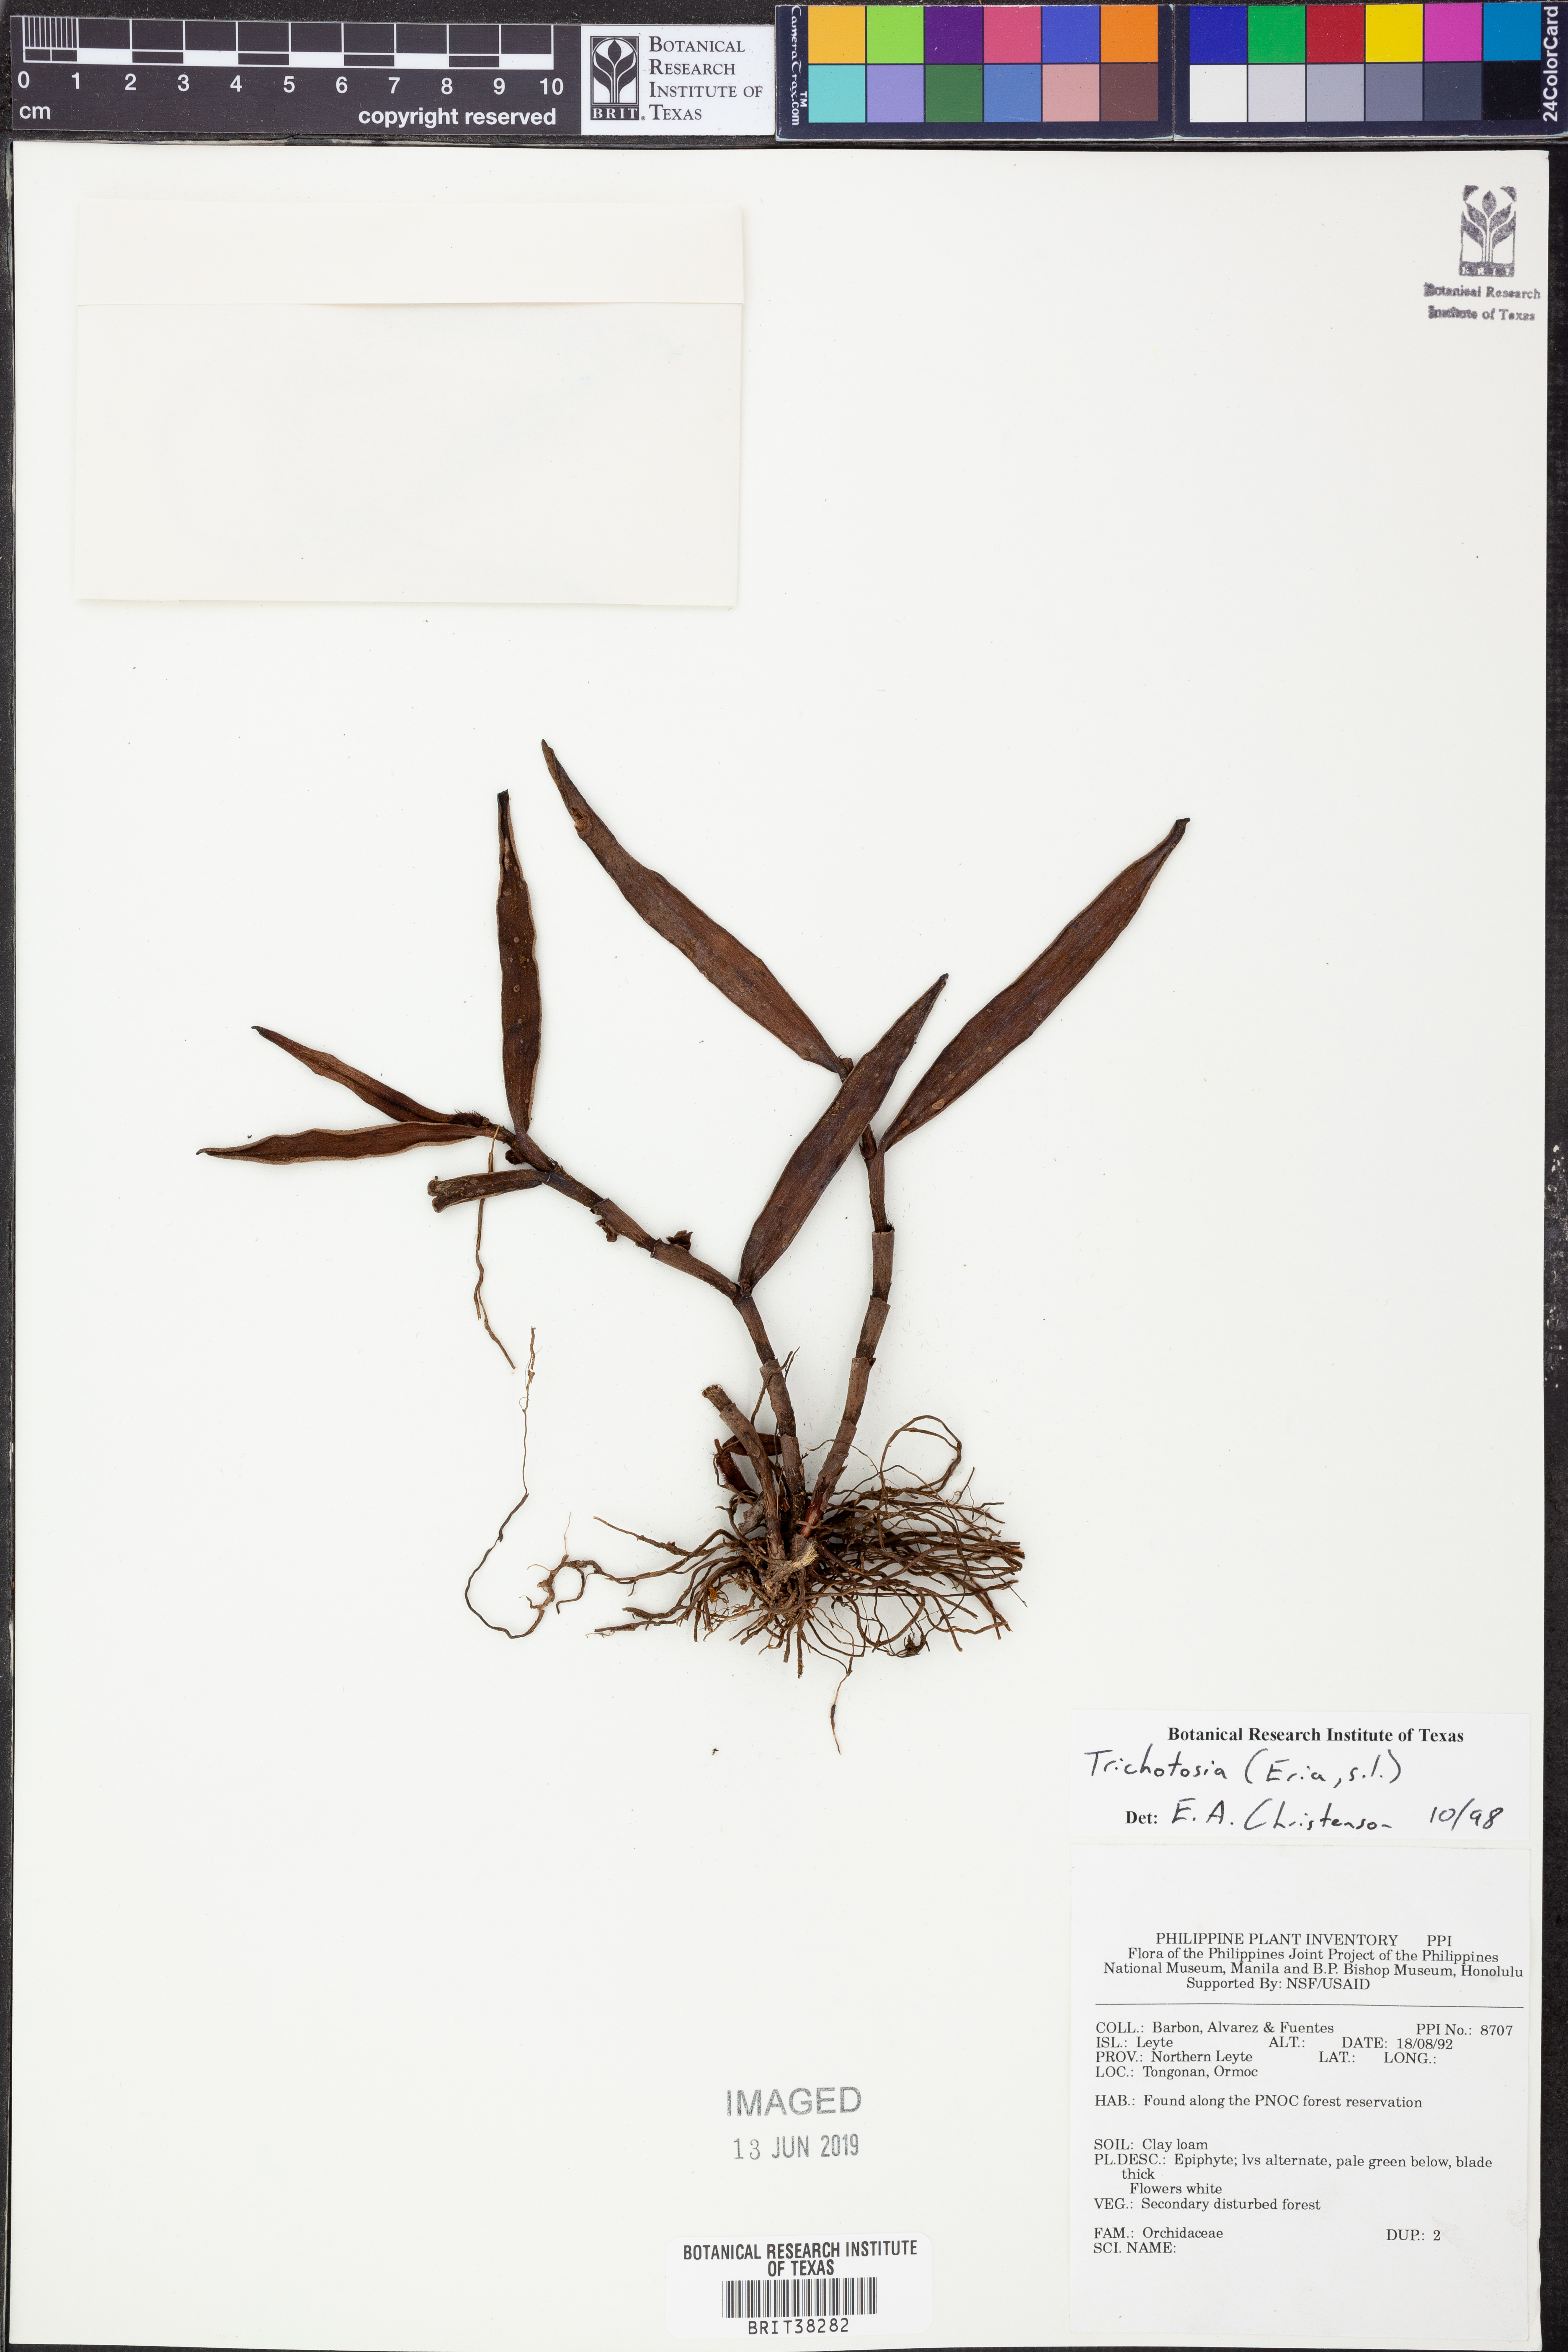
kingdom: Plantae
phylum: Tracheophyta
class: Liliopsida
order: Asparagales
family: Orchidaceae
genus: Trichotosia
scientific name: Trichotosia
